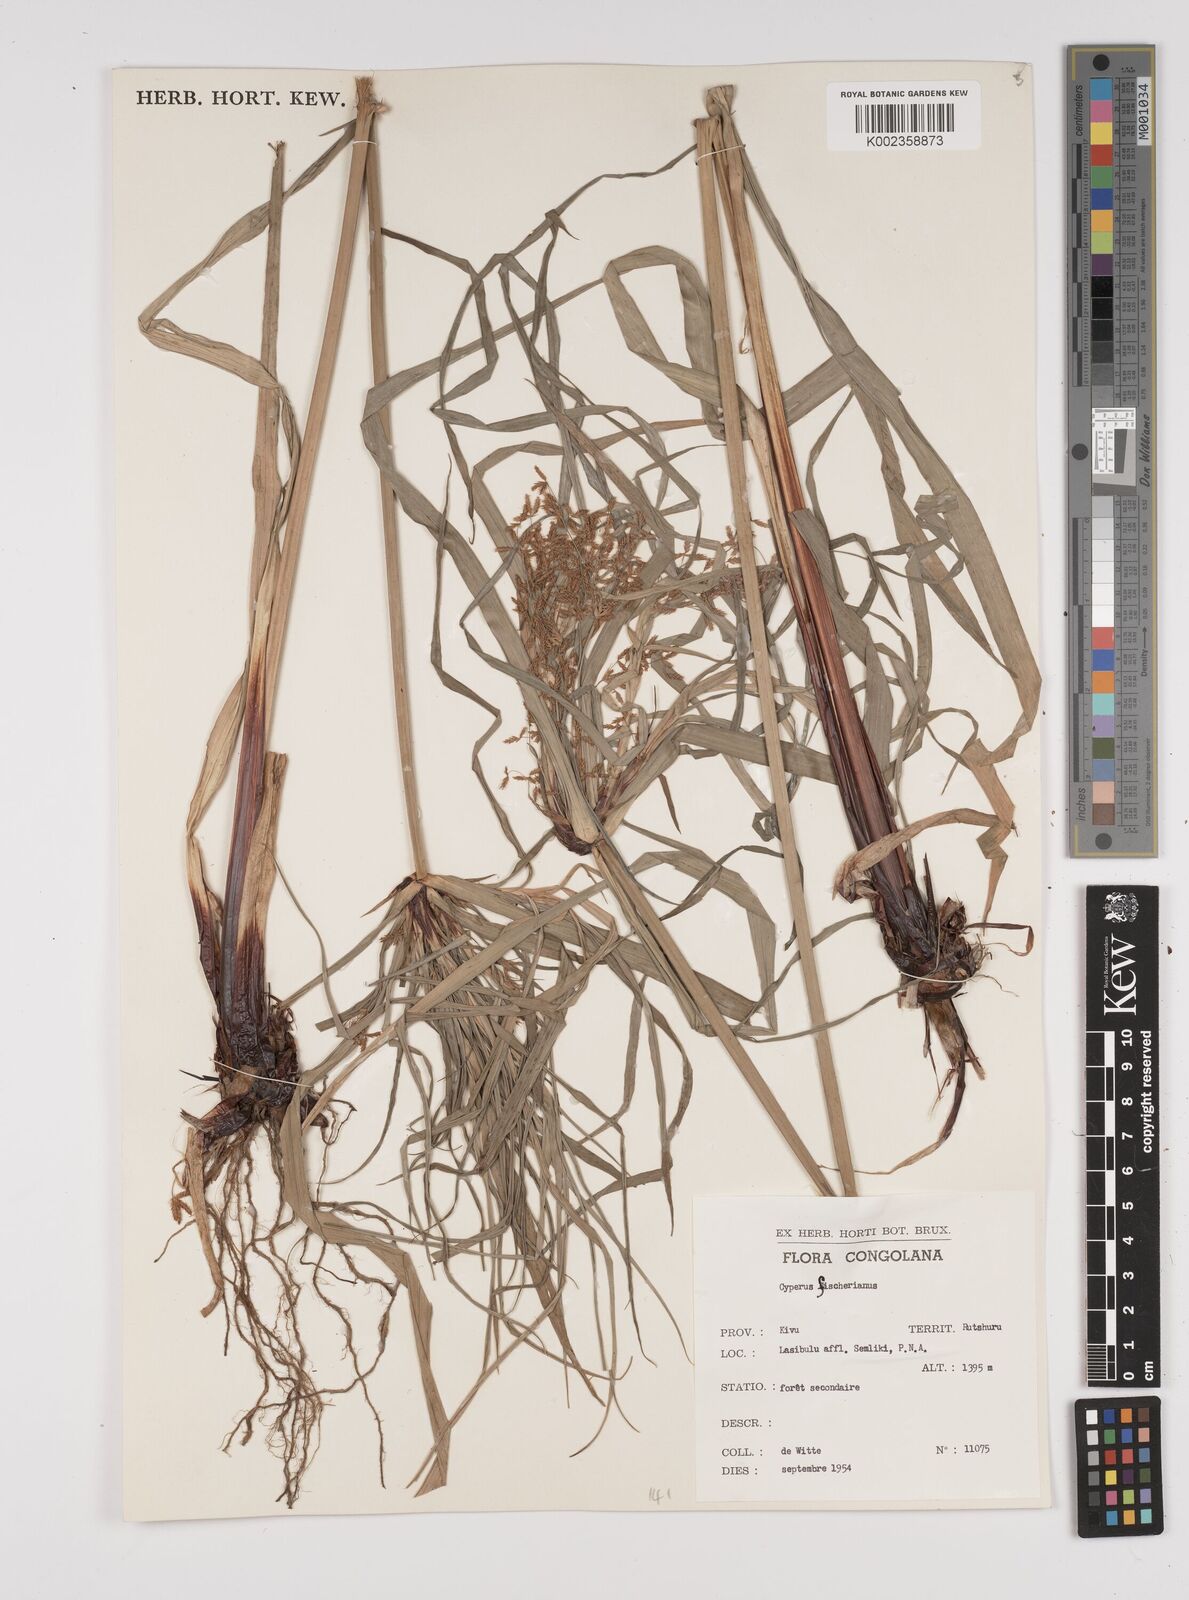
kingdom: Plantae
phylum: Tracheophyta
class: Liliopsida
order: Poales
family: Cyperaceae
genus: Cyperus
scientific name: Cyperus fischerianus
